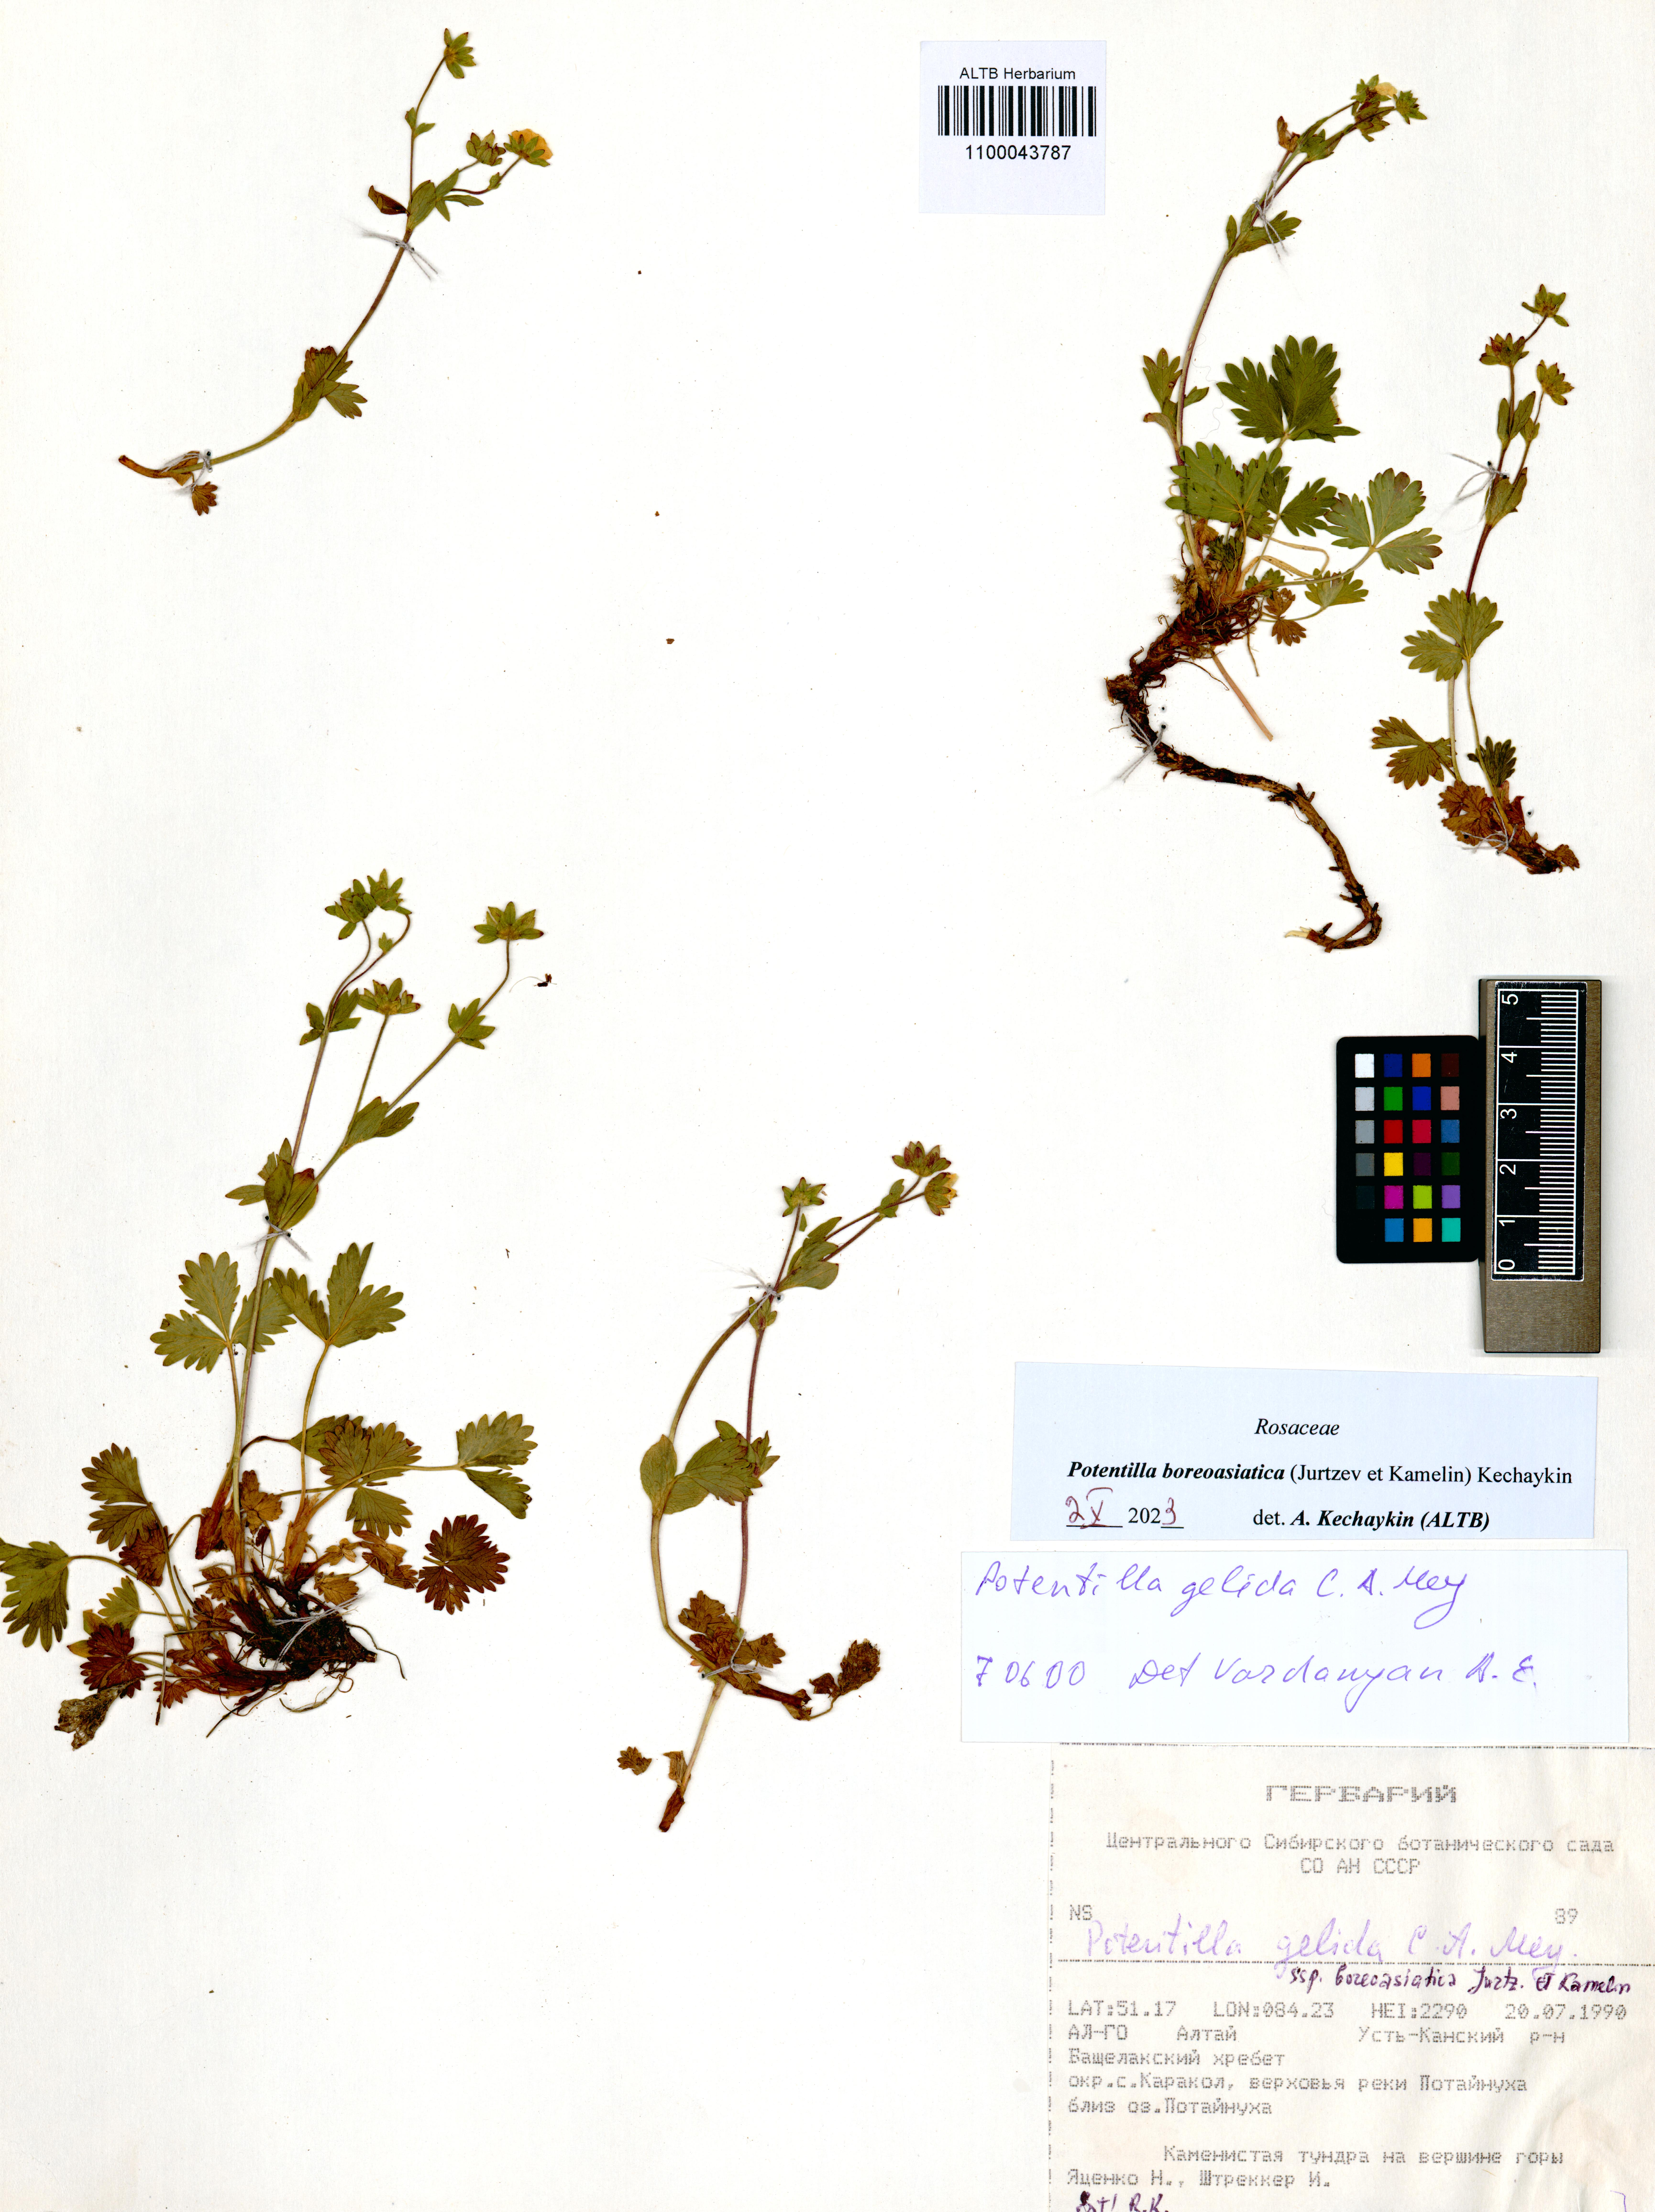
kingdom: Plantae
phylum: Tracheophyta
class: Magnoliopsida
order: Rosales
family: Rosaceae
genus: Potentilla
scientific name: Potentilla
